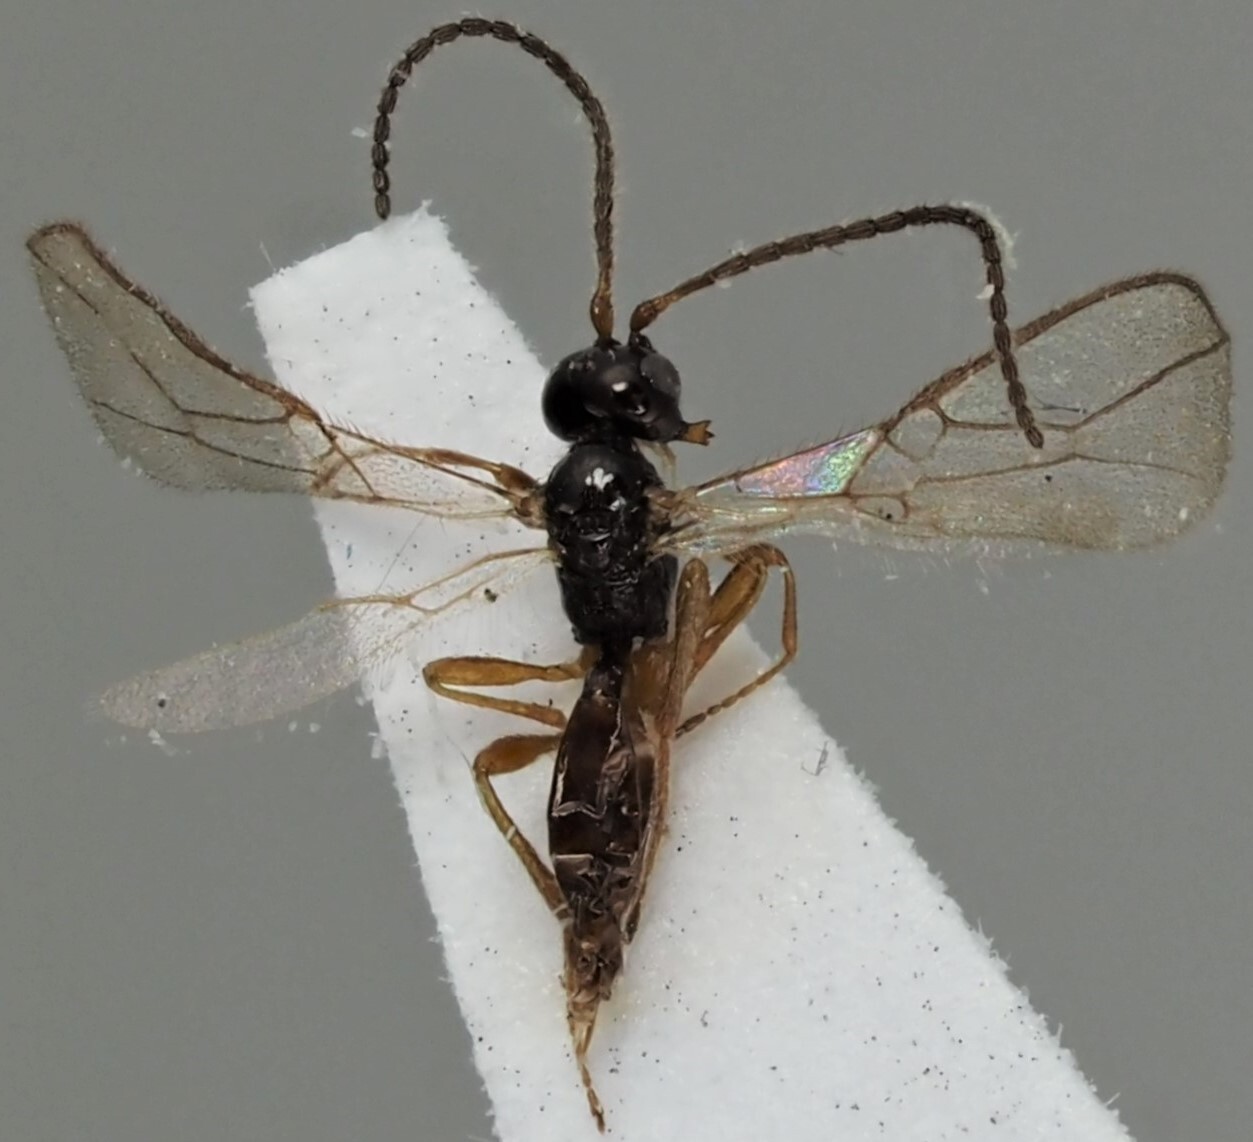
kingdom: Animalia
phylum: Arthropoda
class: Insecta
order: Hymenoptera
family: Braconidae
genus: Dinotrema
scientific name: Dinotrema lobatum
